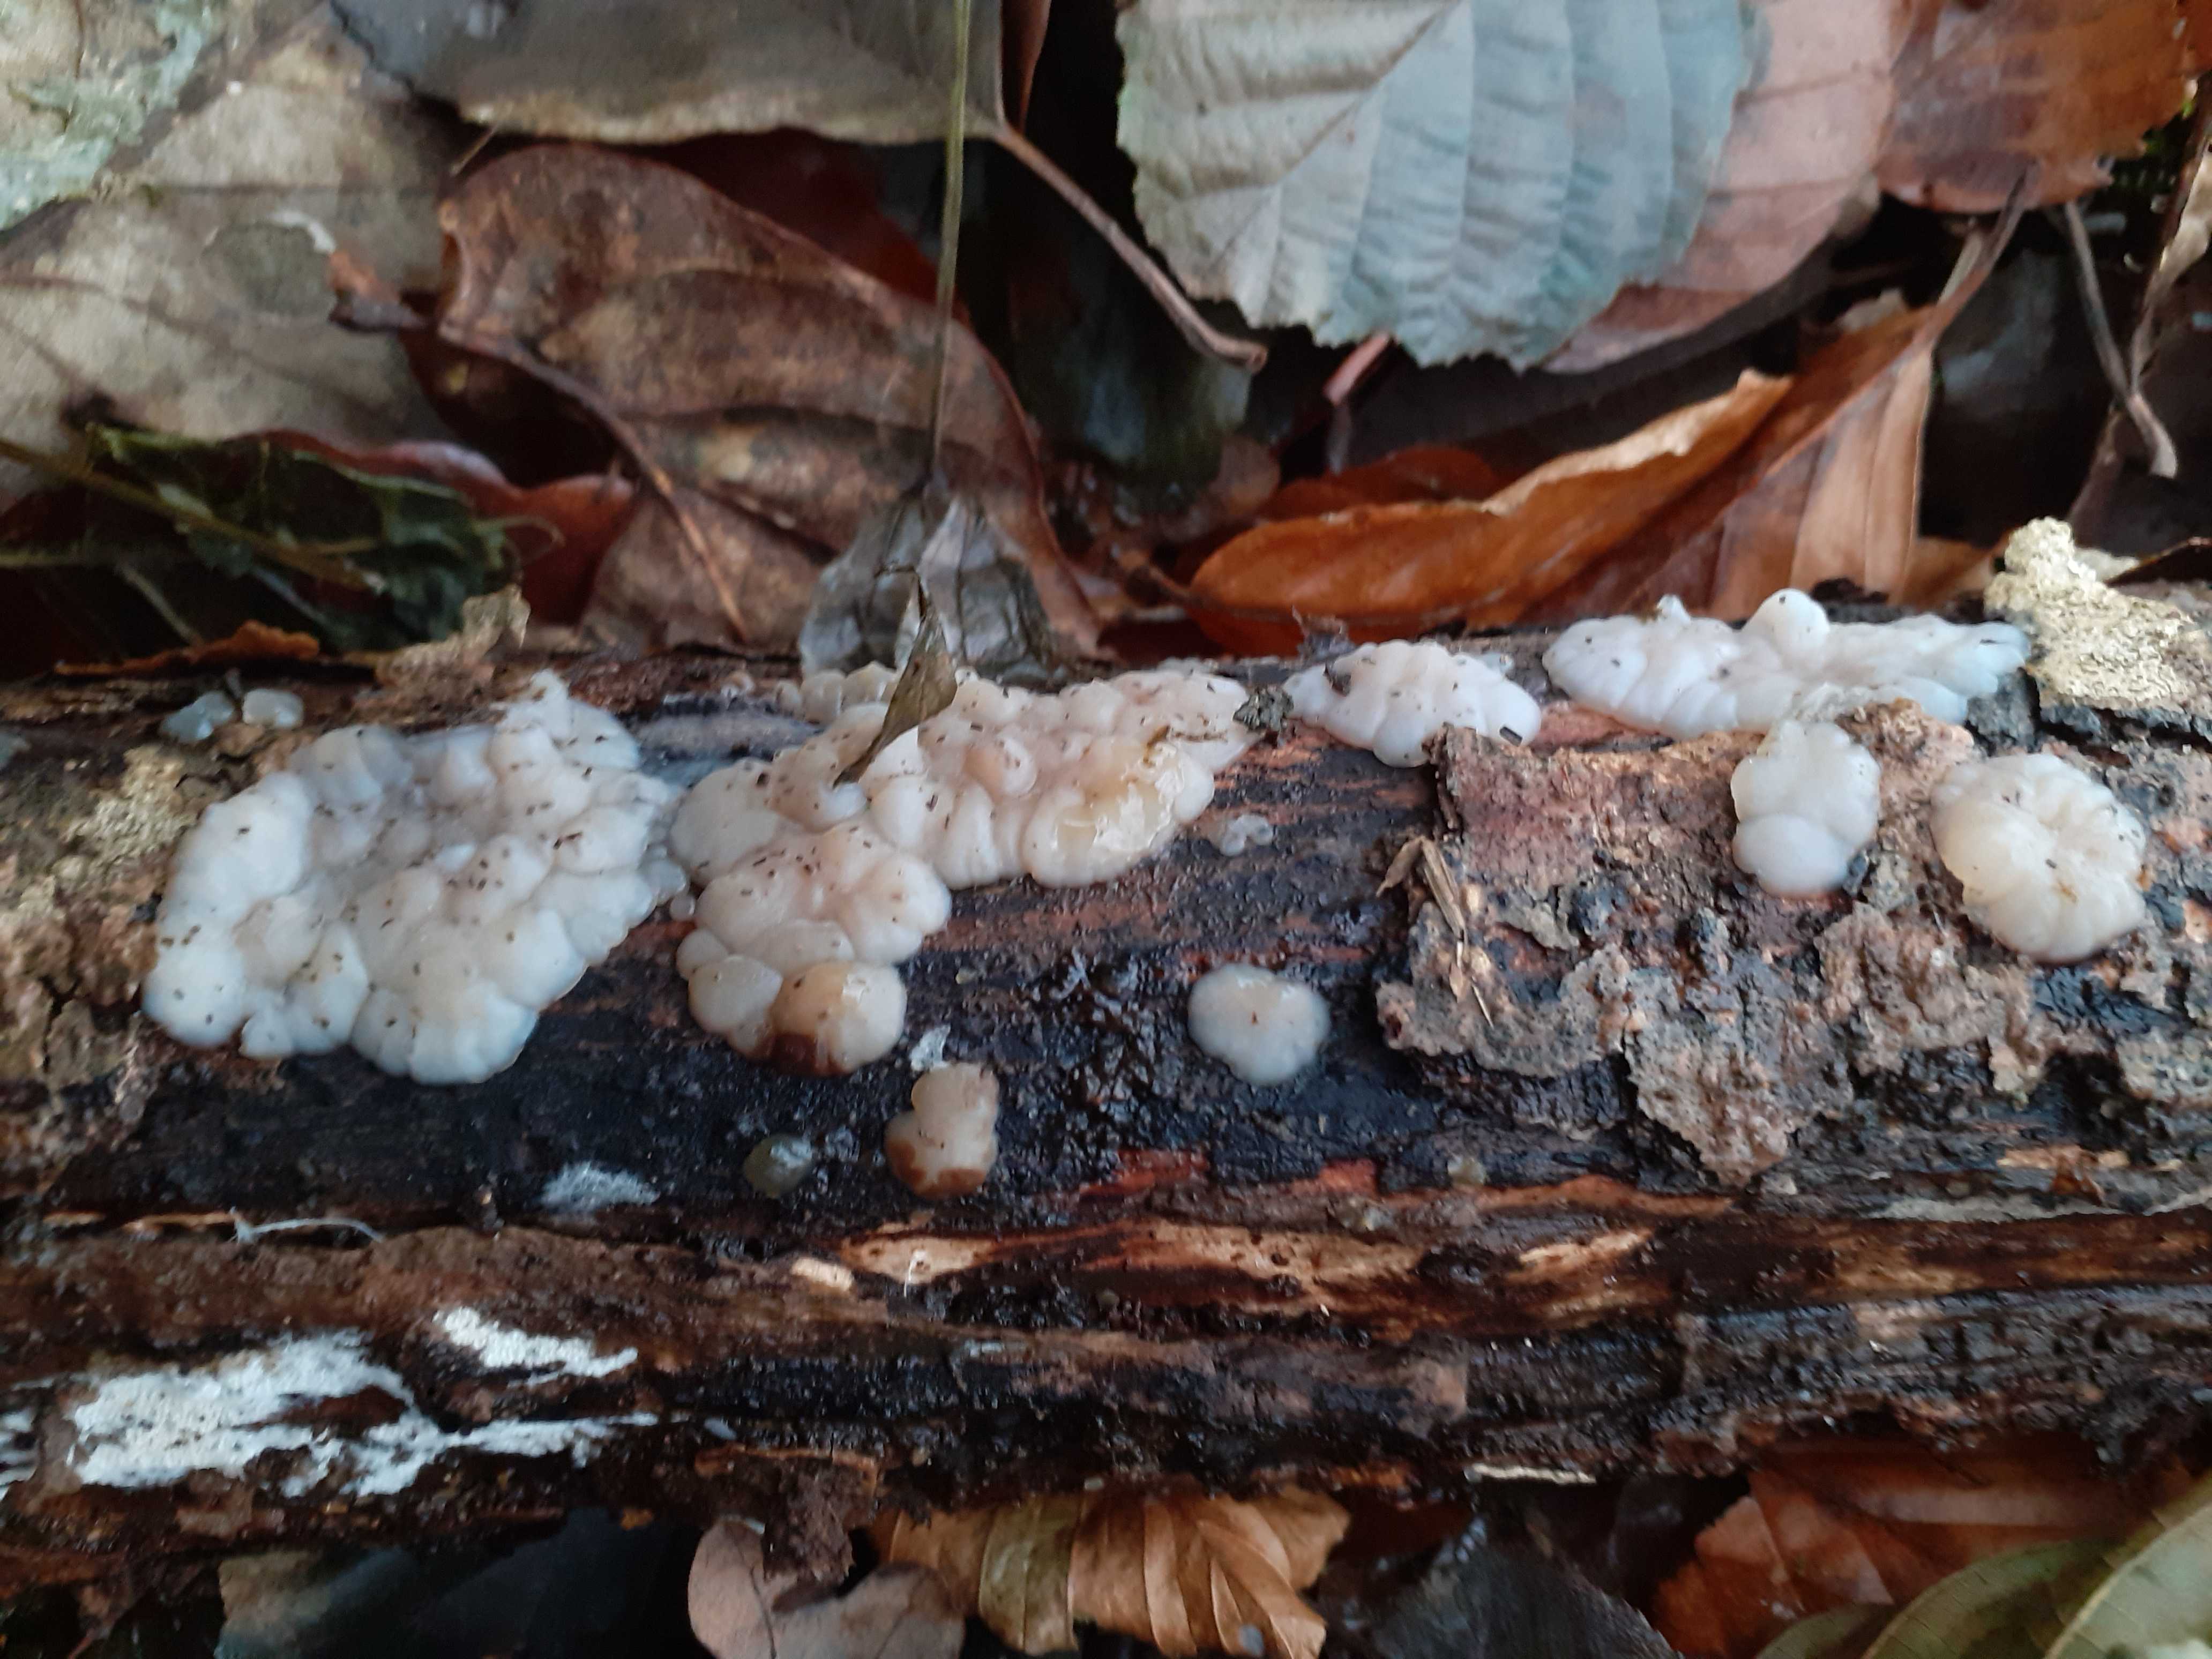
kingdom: Fungi
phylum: Basidiomycota
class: Agaricomycetes
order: Auriculariales
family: Auriculariaceae
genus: Exidia
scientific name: Exidia thuretiana
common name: hvidlig bævretop
